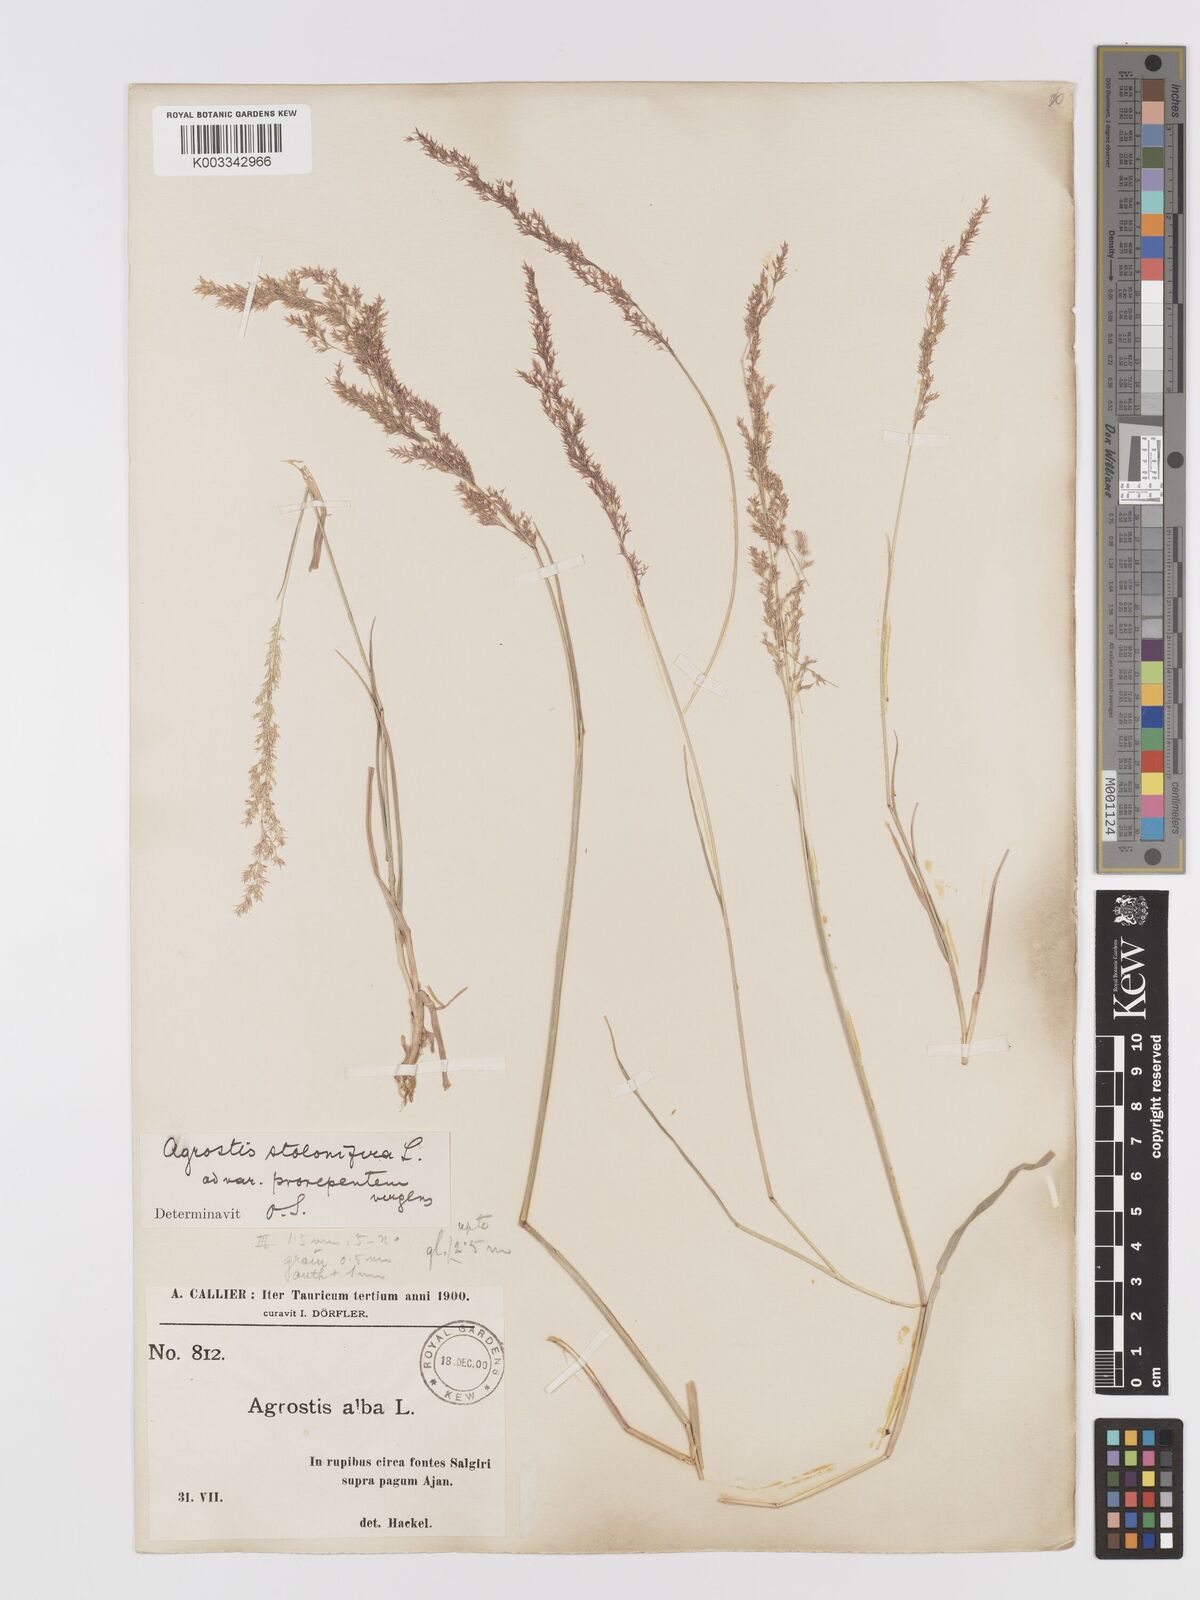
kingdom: Plantae
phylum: Tracheophyta
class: Liliopsida
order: Poales
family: Poaceae
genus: Agrostis
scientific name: Agrostis stolonifera
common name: Creeping bentgrass
